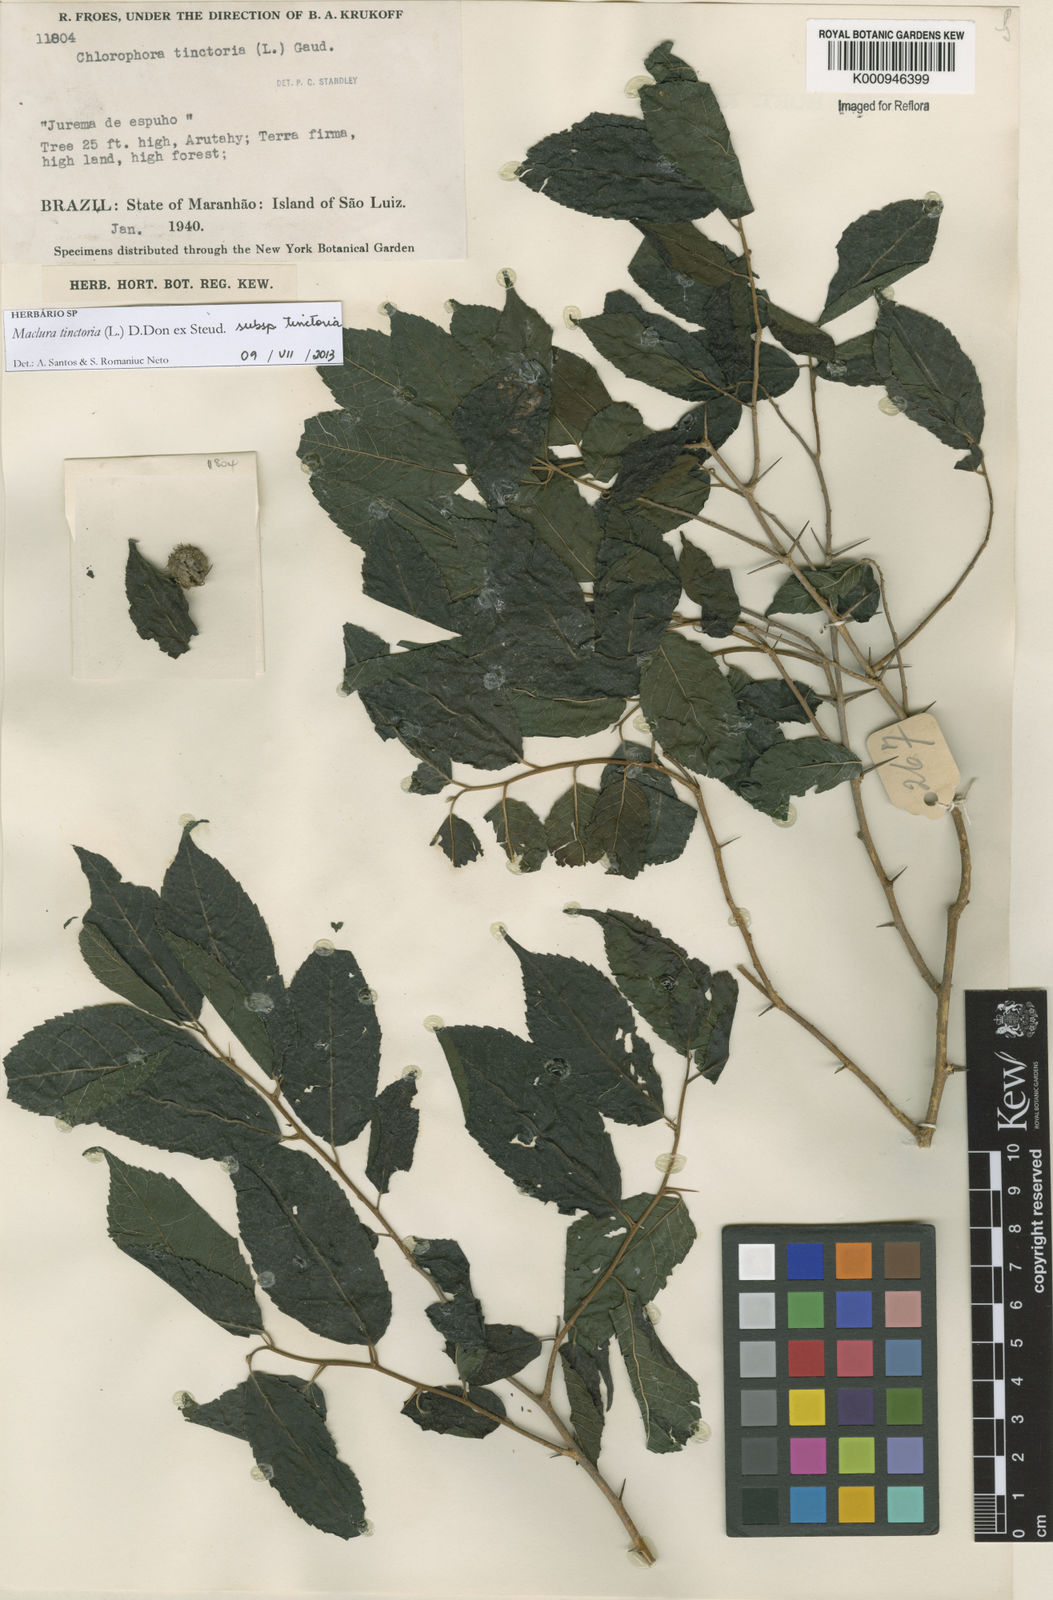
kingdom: Plantae
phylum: Tracheophyta
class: Magnoliopsida
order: Rosales
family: Moraceae
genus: Maclura
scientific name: Maclura
